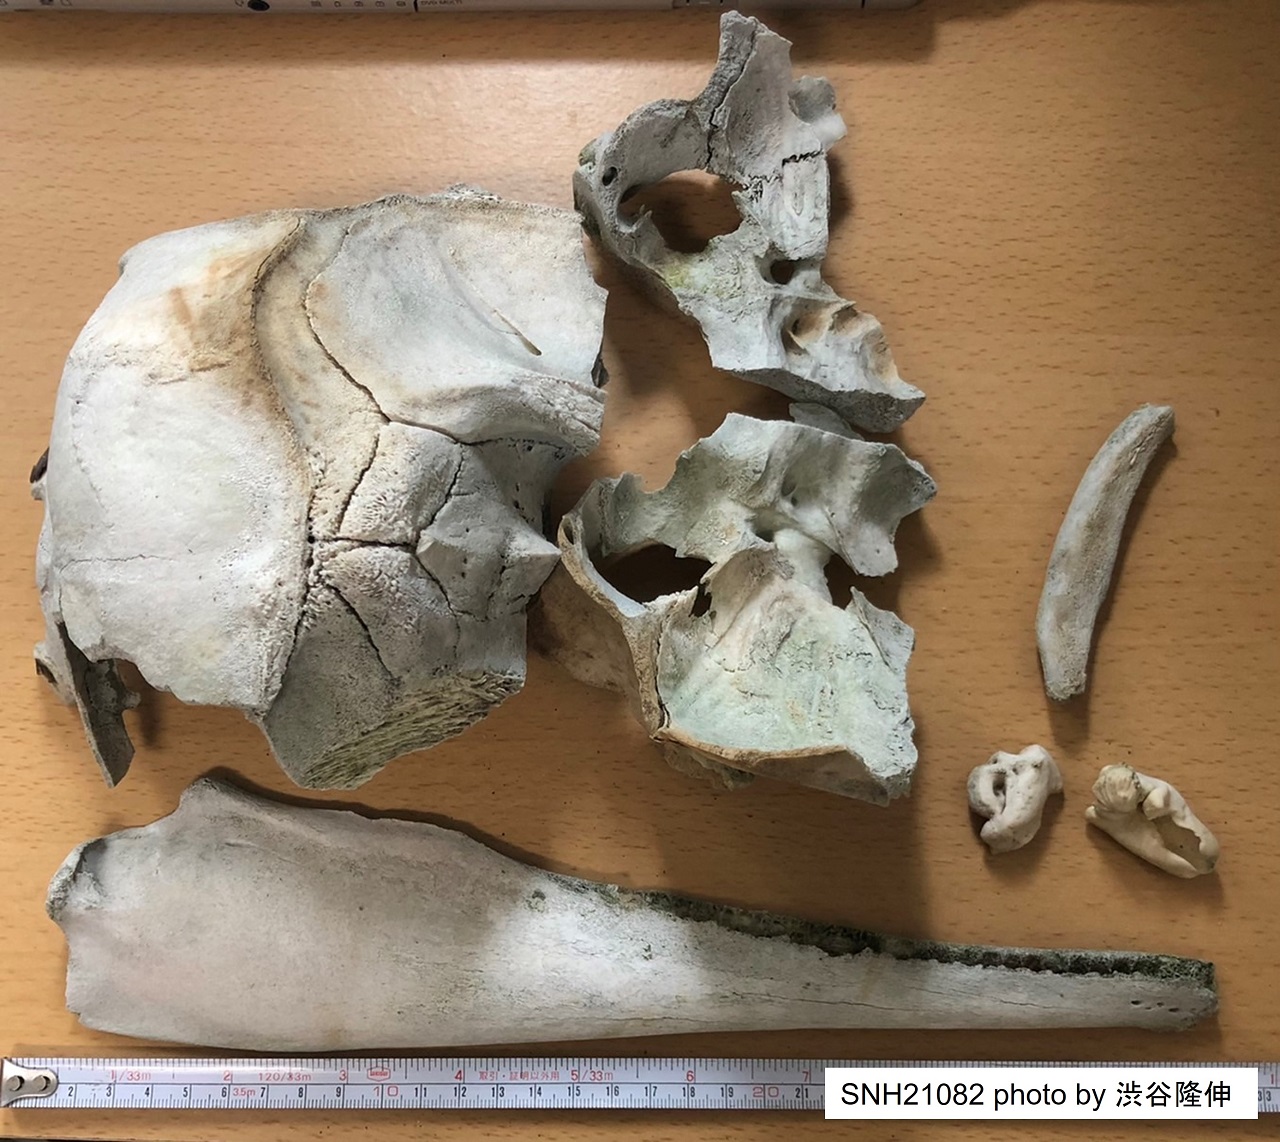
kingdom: Animalia
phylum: Chordata
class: Mammalia
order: Cetacea
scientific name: Cetacea
